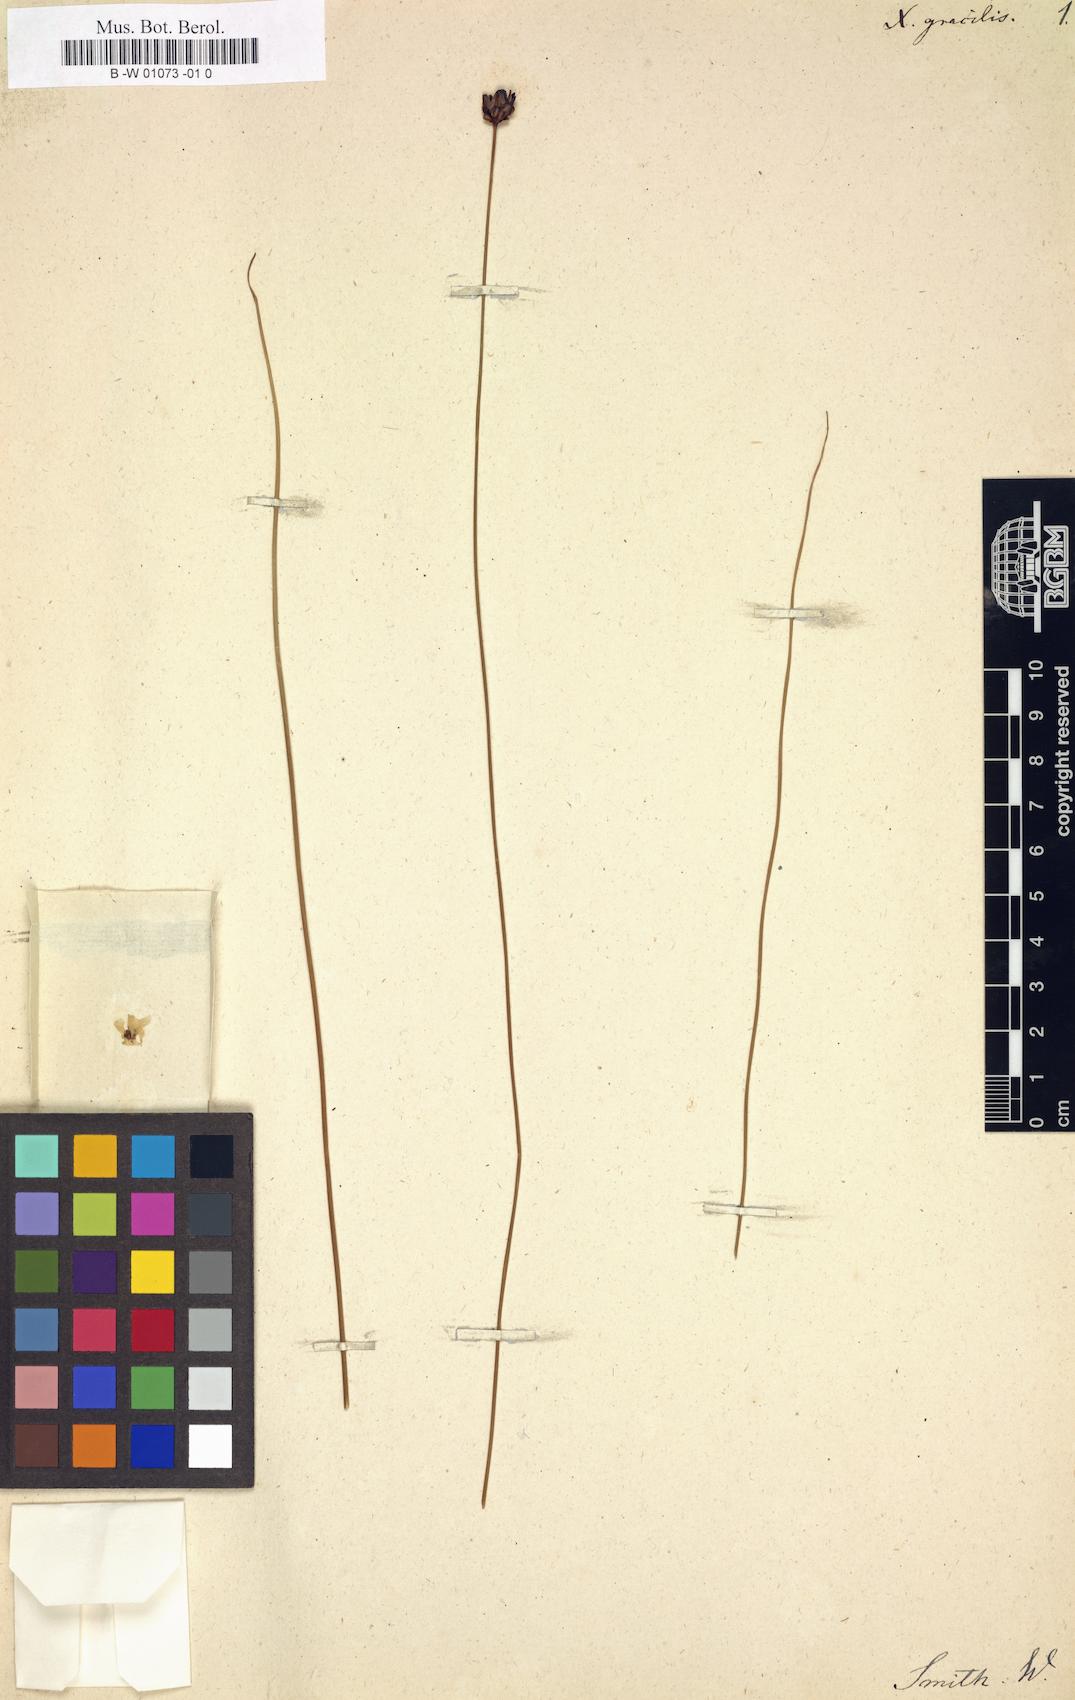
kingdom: Plantae
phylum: Tracheophyta
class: Liliopsida
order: Poales
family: Xyridaceae
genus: Xyris
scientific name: Xyris gracilis
